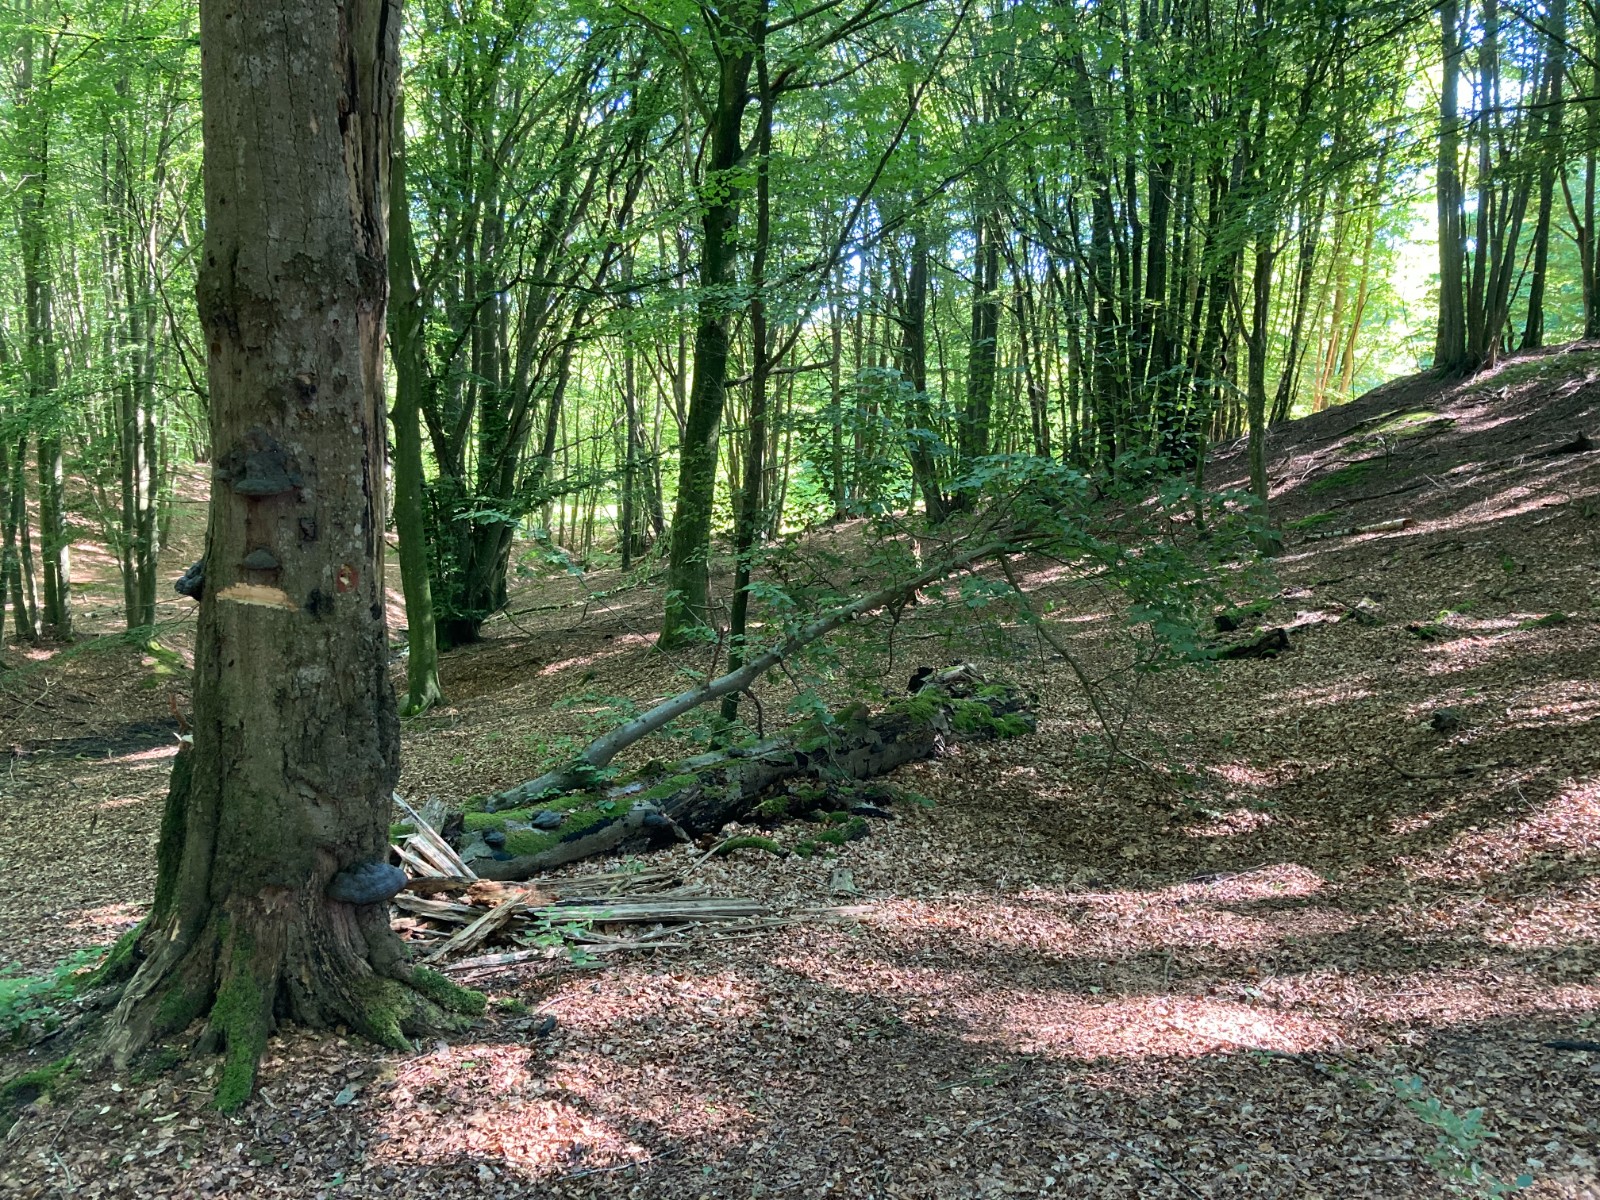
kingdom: Fungi
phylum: Basidiomycota
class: Agaricomycetes
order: Polyporales
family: Polyporaceae
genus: Fomes
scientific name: Fomes fomentarius
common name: tøndersvamp
